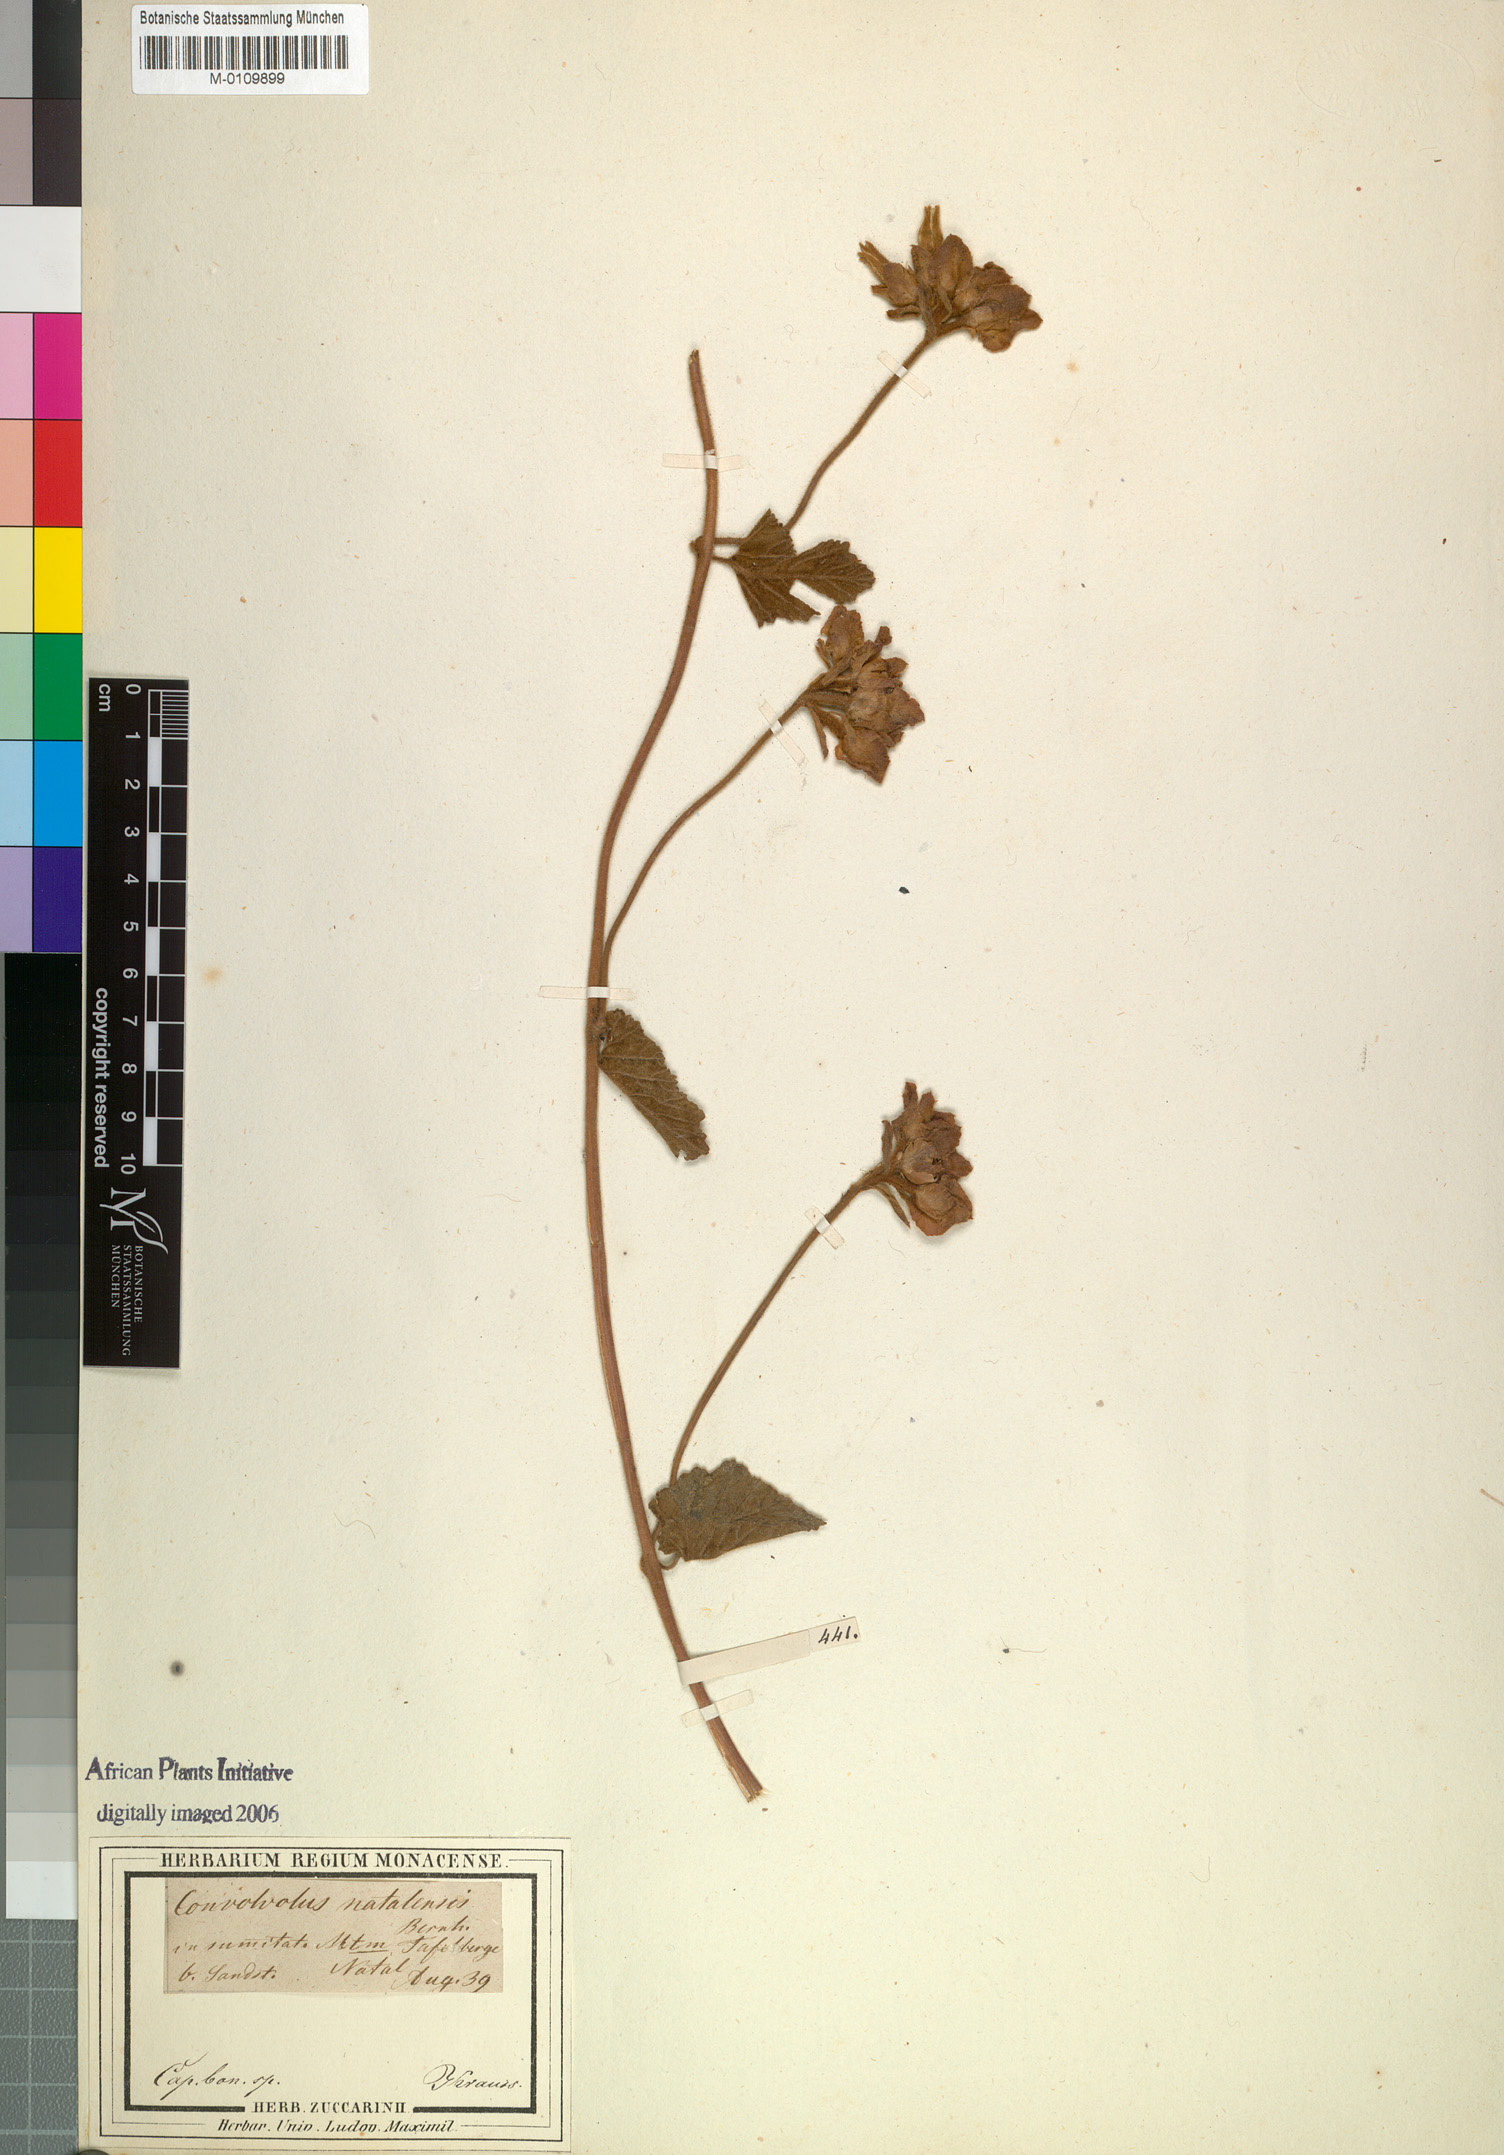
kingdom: Plantae
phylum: Tracheophyta
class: Magnoliopsida
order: Solanales
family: Convolvulaceae
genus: Convolvulus
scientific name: Convolvulus natalensis
